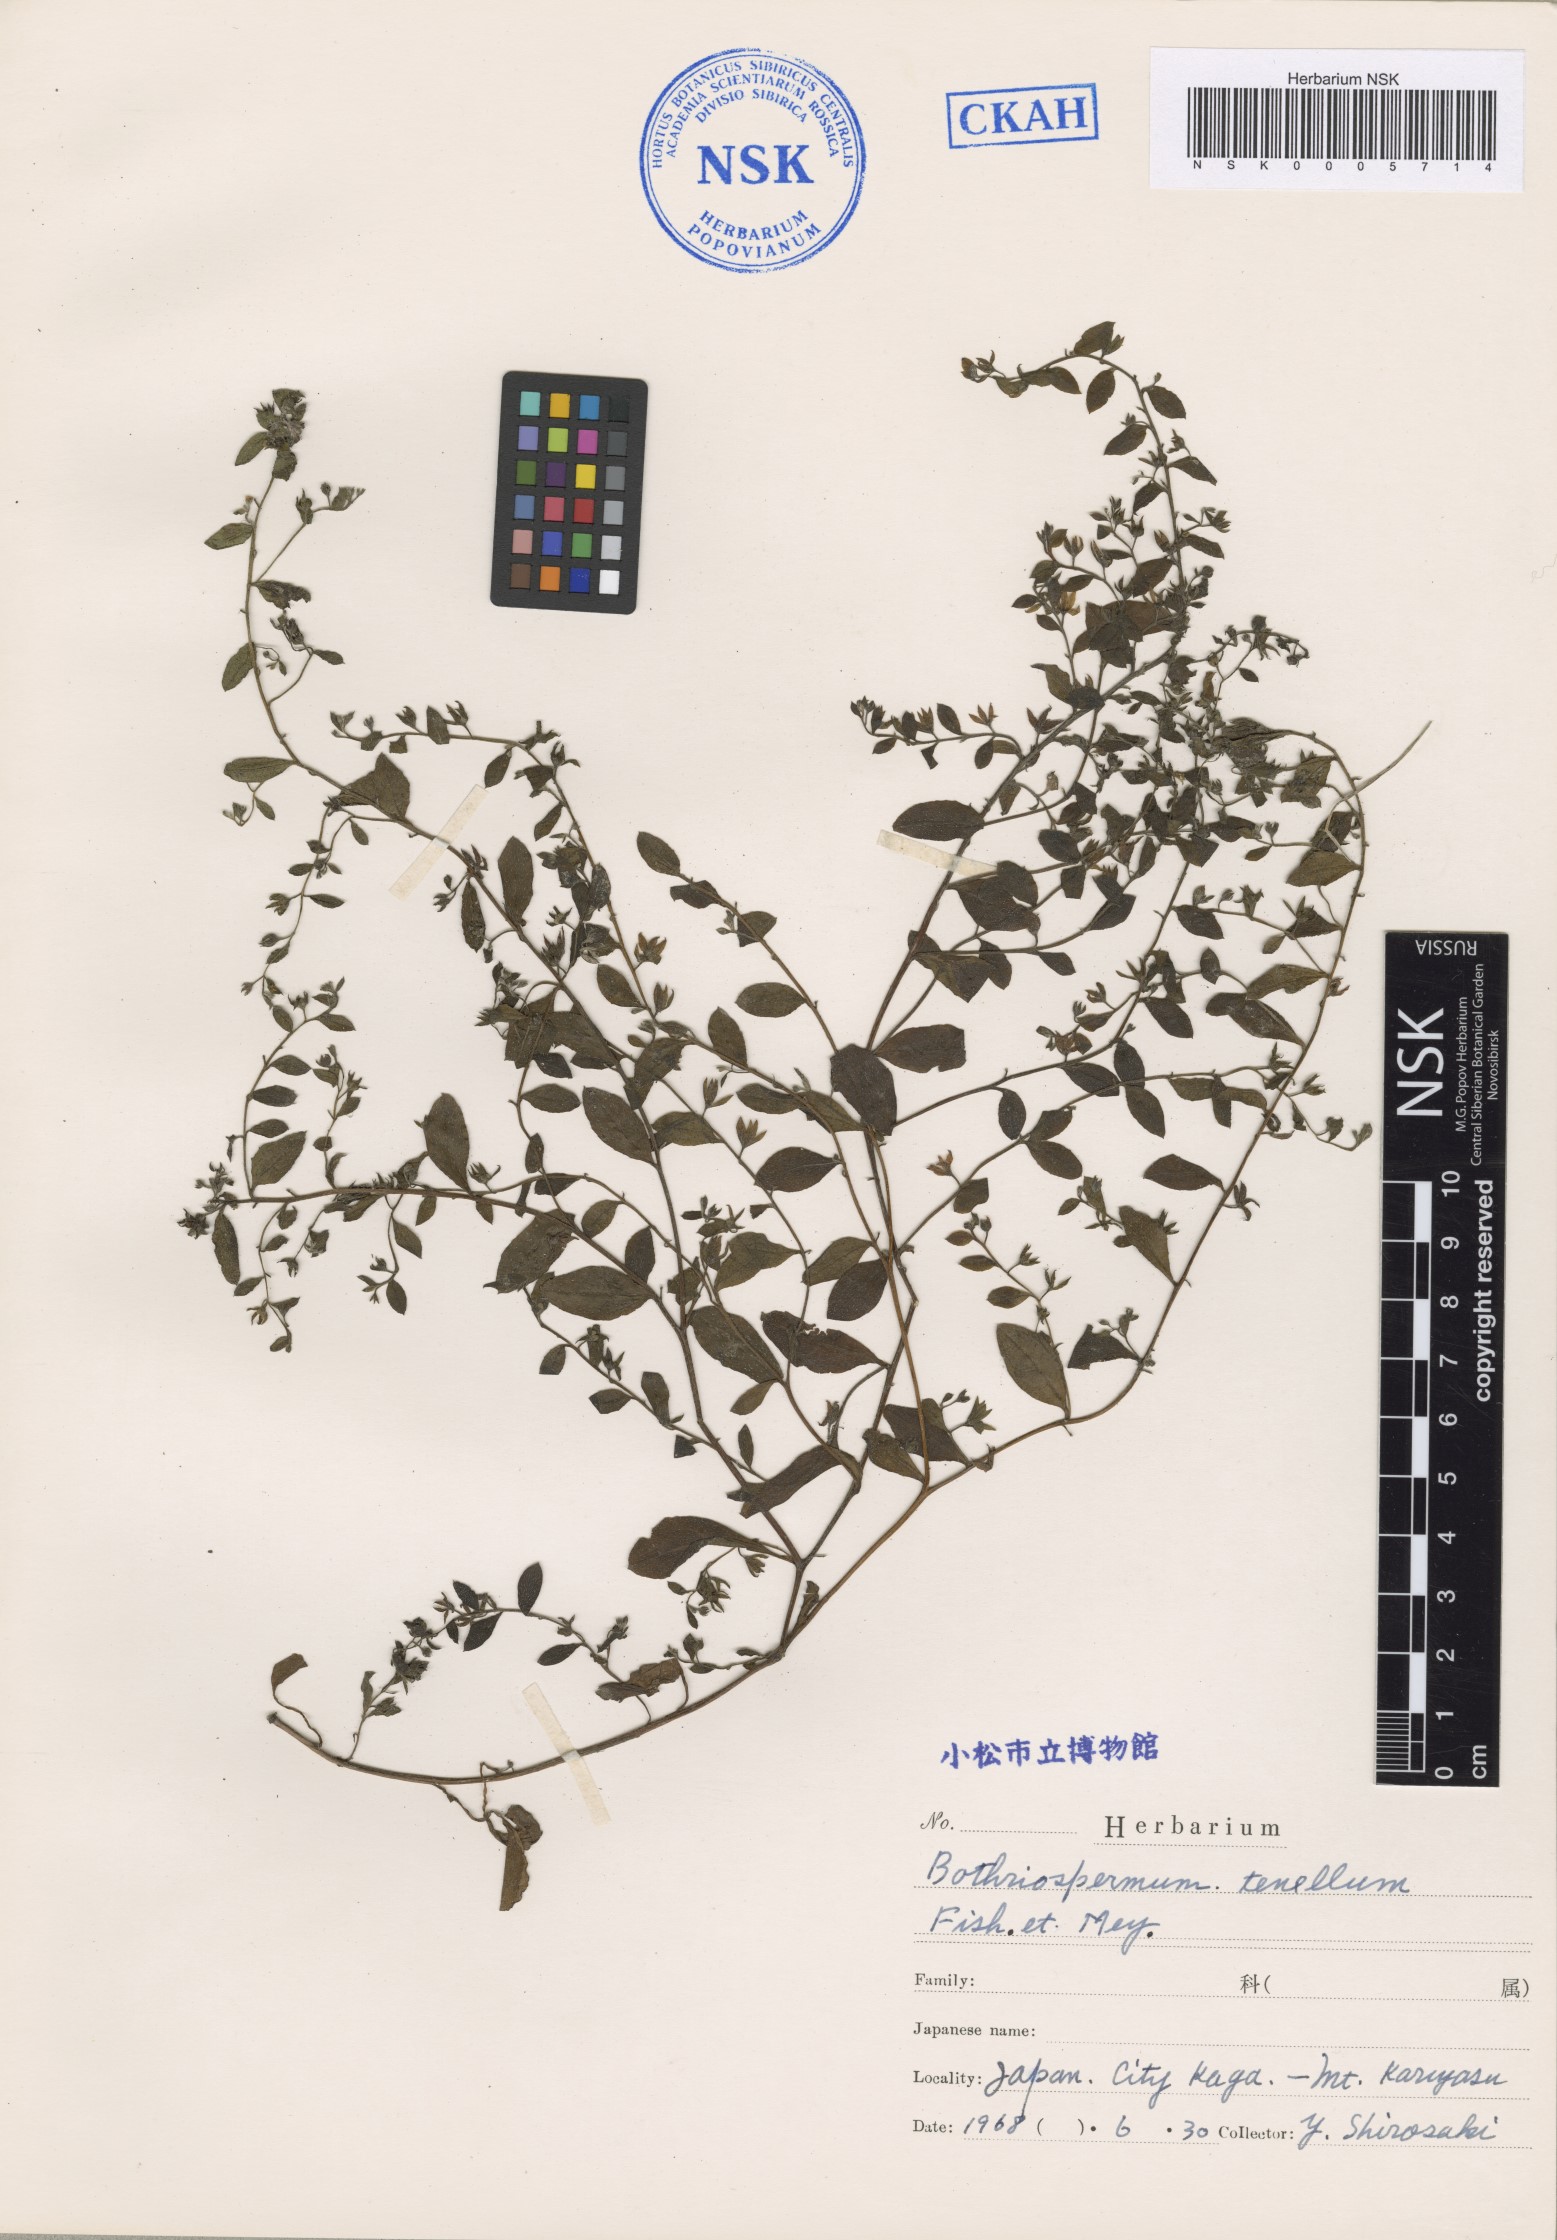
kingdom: Plantae
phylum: Tracheophyta
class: Magnoliopsida
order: Boraginales
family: Boraginaceae
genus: Bothriospermum
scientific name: Bothriospermum zeylanicum
